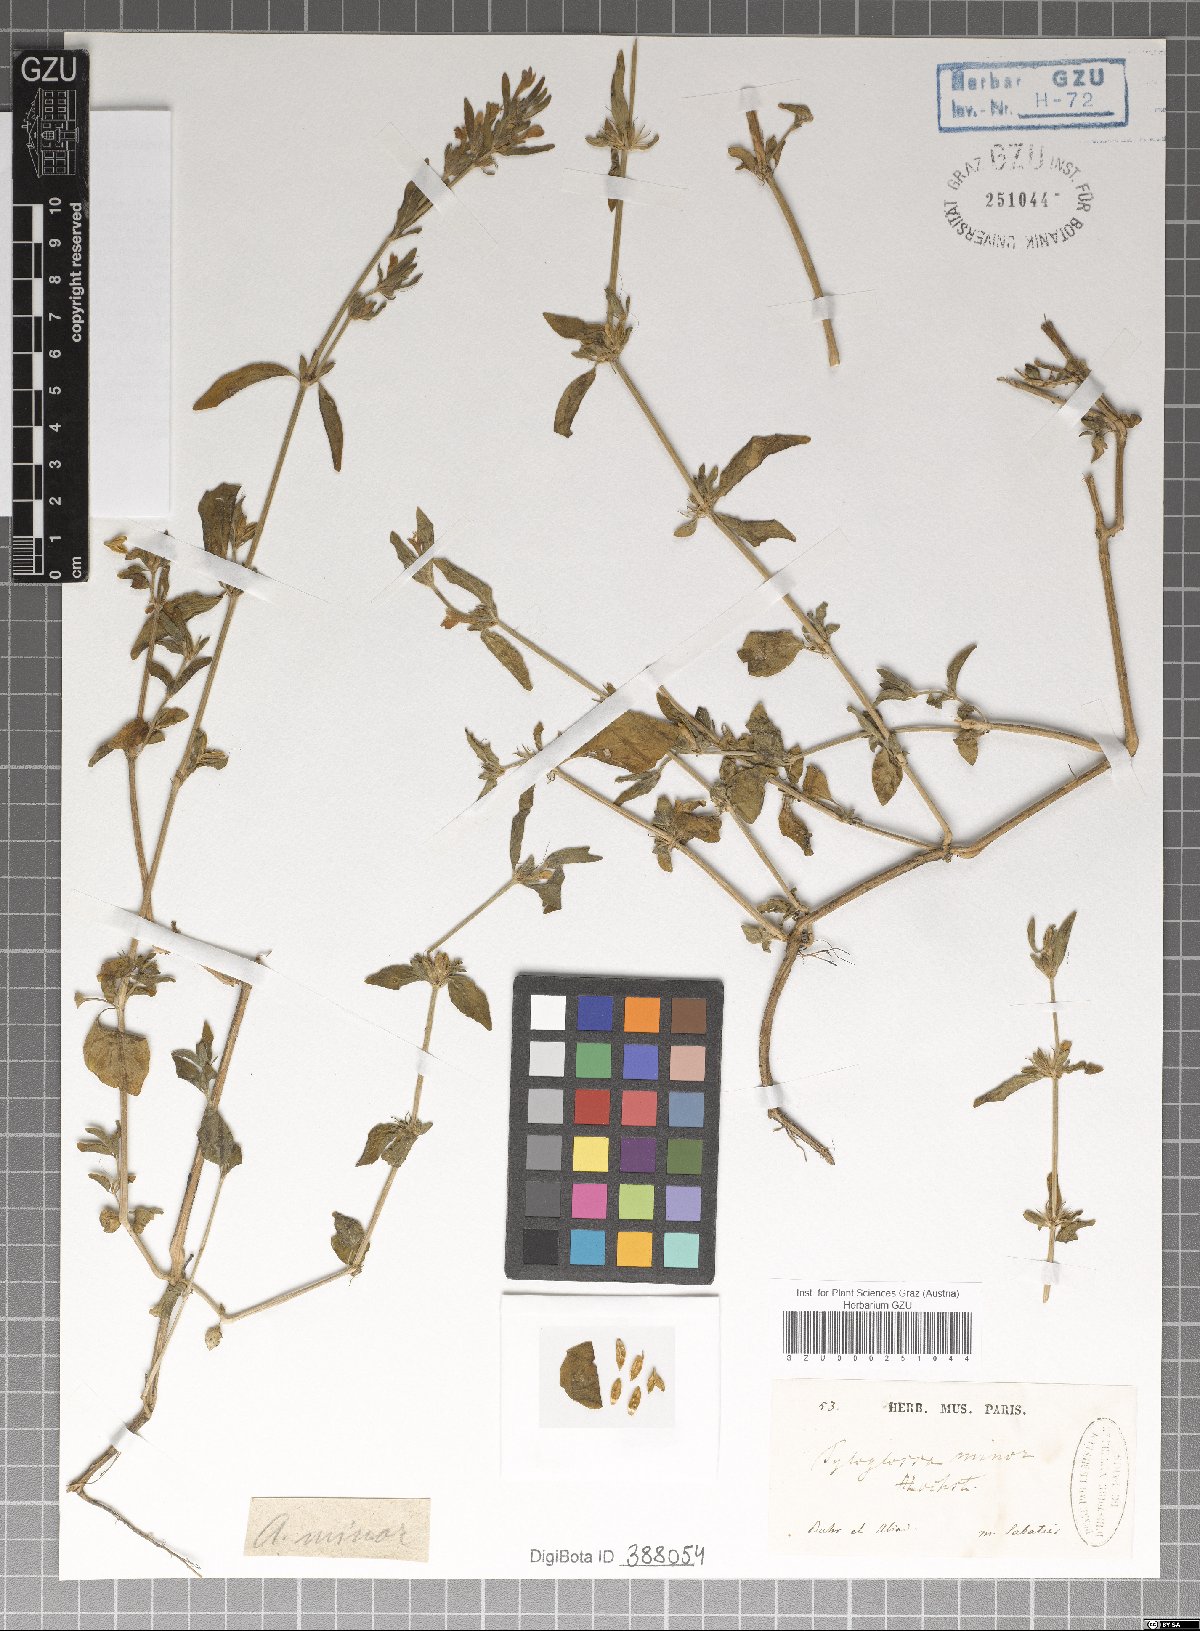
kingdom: Plantae
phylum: Tracheophyta
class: Magnoliopsida
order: Lamiales
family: Acanthaceae
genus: Justicia
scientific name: Justicia flava
